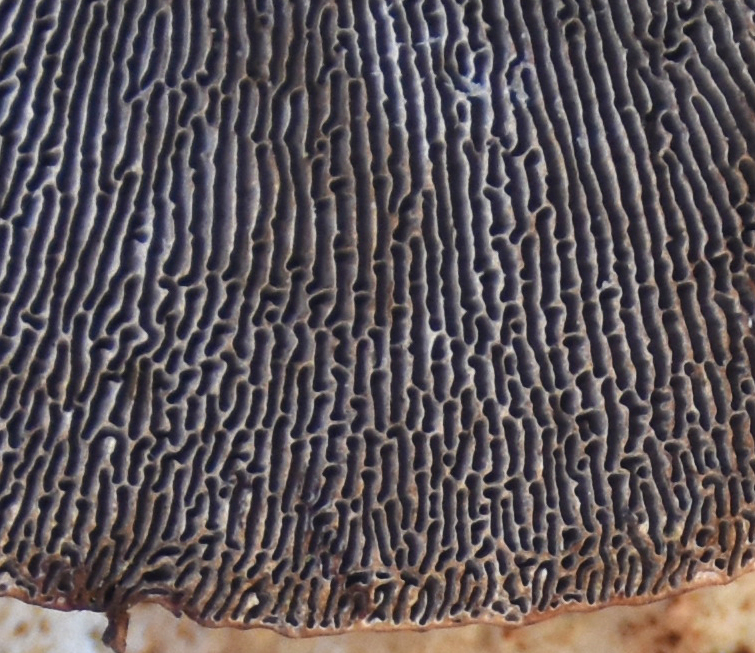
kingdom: Fungi
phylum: Basidiomycota
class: Agaricomycetes
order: Polyporales
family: Polyporaceae
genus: Daedaleopsis
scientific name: Daedaleopsis confragosa
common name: rødmende læderporesvamp
